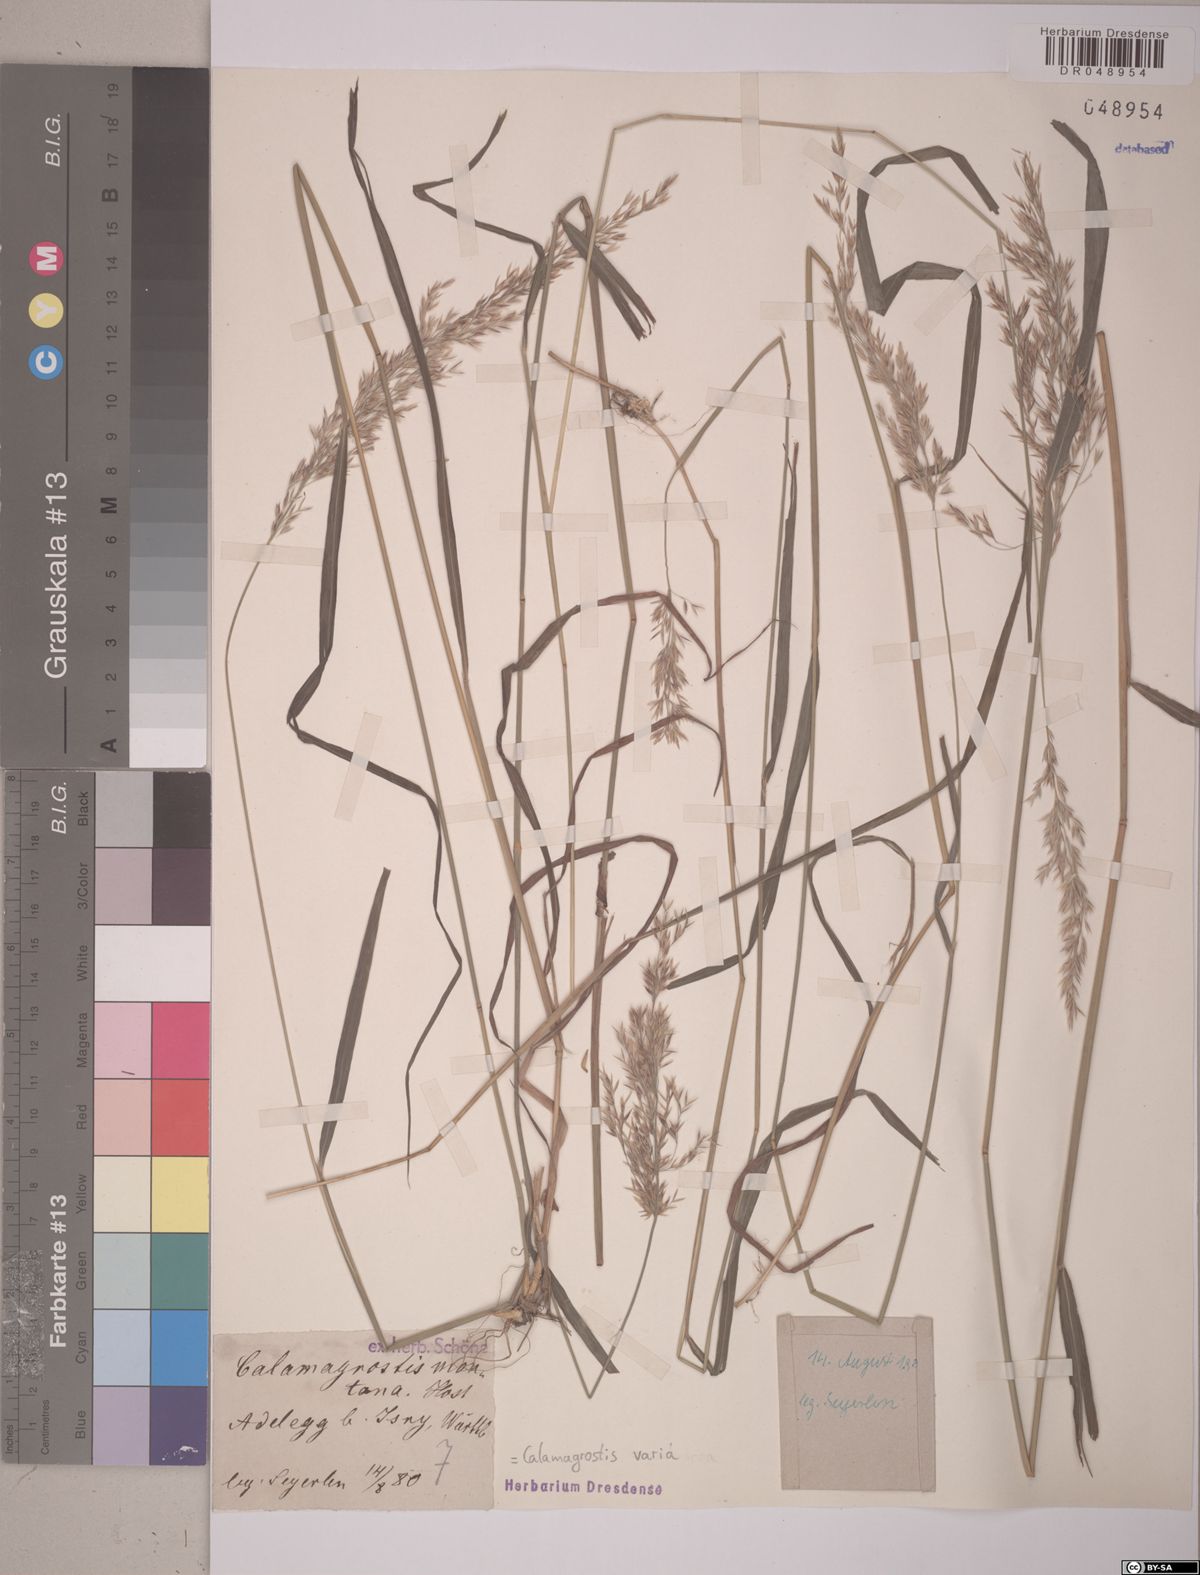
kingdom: Plantae
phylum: Tracheophyta
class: Liliopsida
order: Poales
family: Poaceae
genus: Calamagrostis
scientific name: Calamagrostis varia
